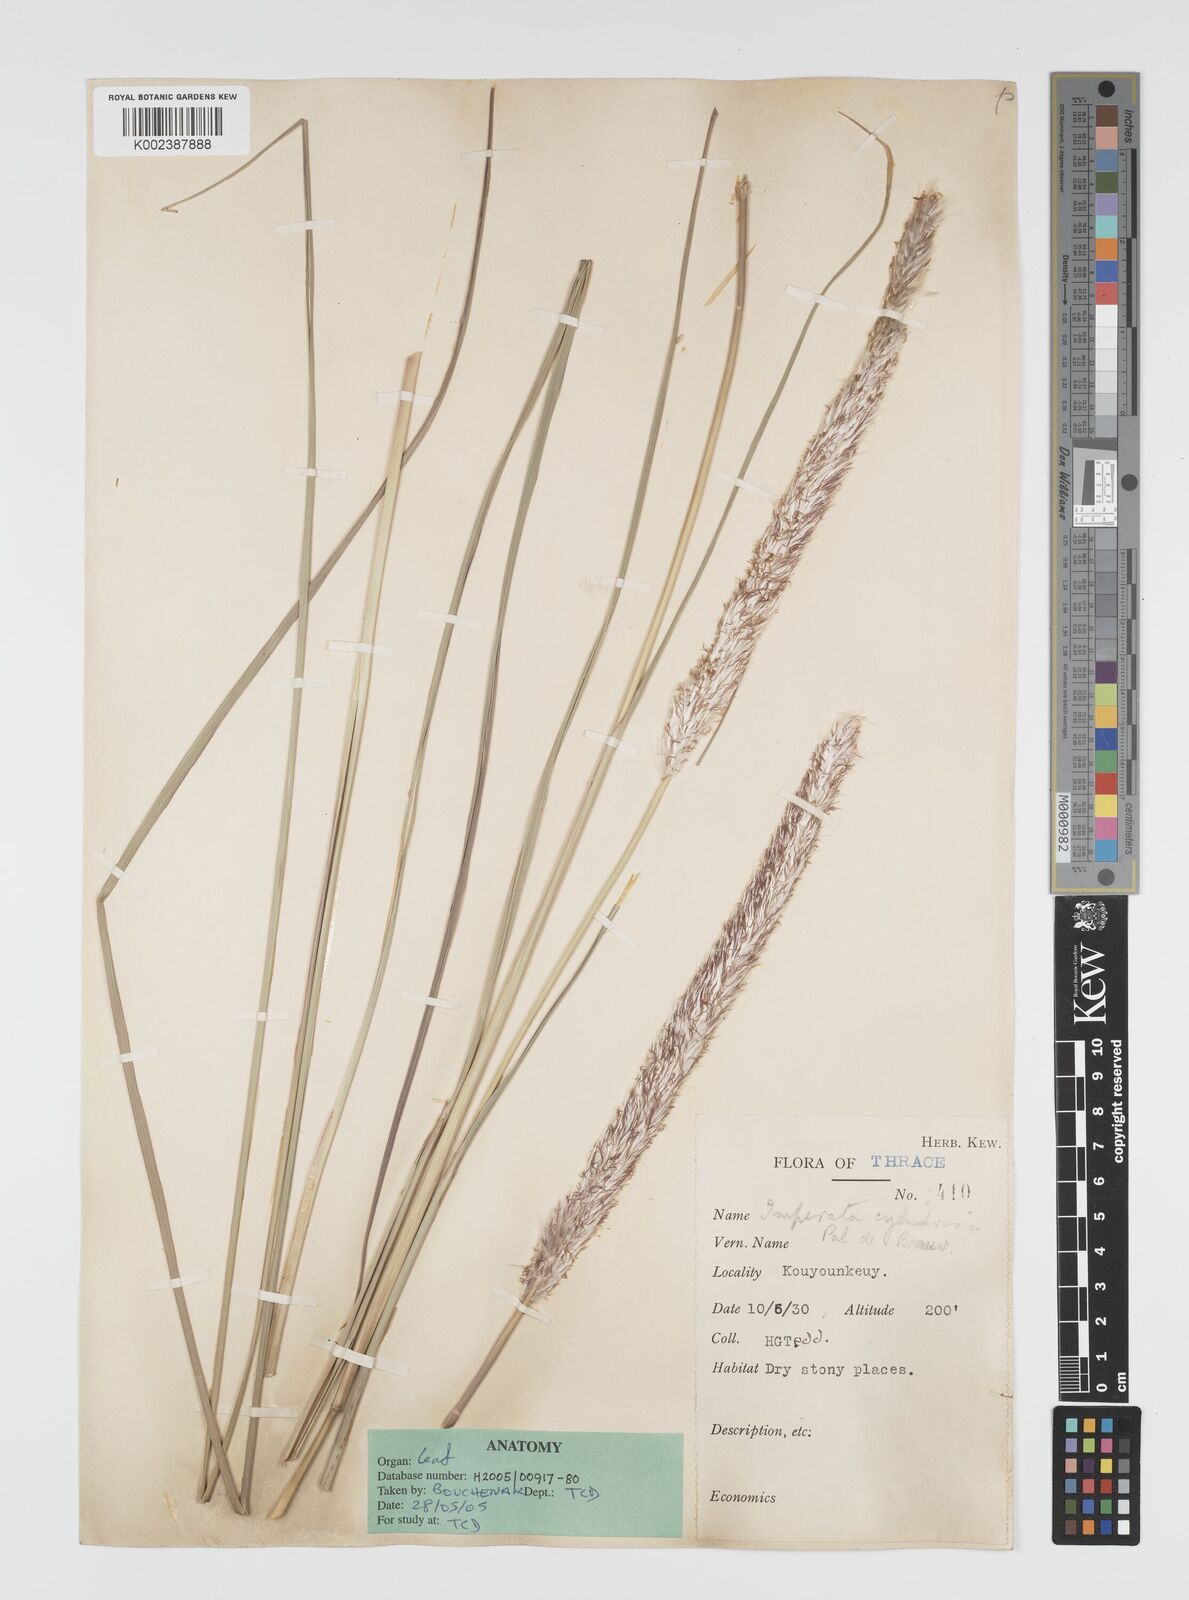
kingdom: Plantae
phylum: Tracheophyta
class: Liliopsida
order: Poales
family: Poaceae
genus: Imperata
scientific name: Imperata cylindrica
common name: Cogongrass
